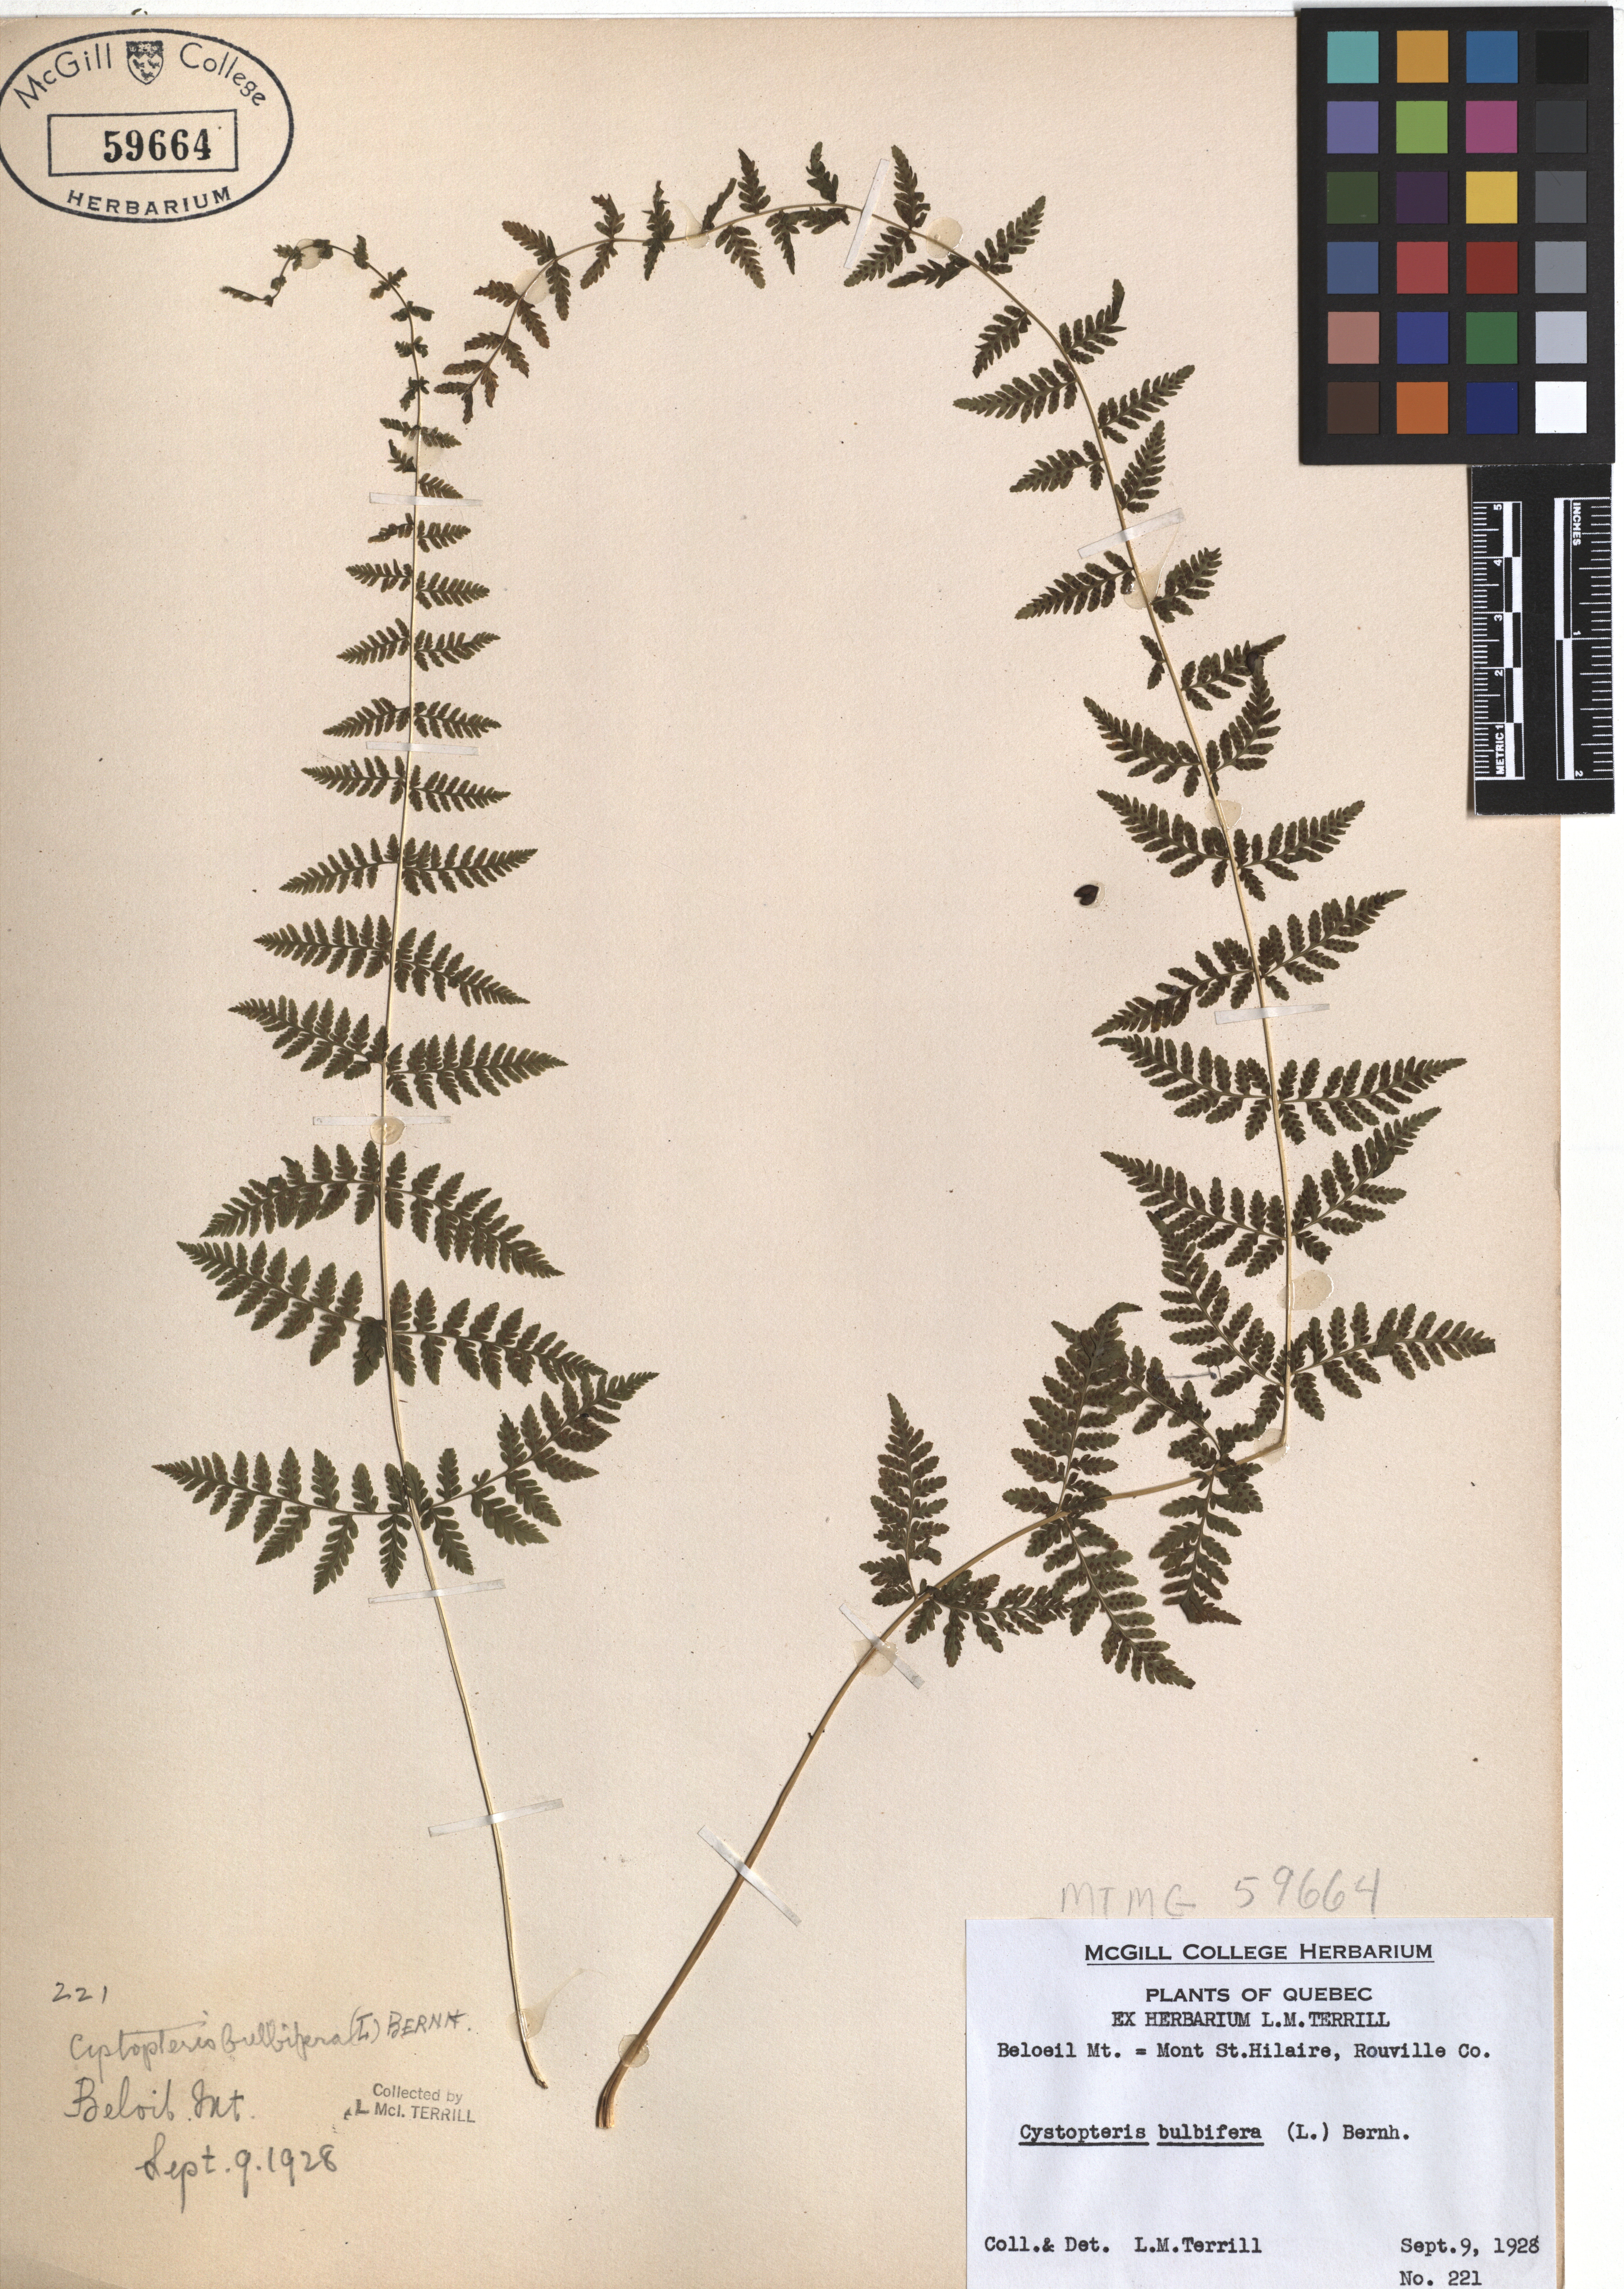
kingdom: Plantae
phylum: Tracheophyta
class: Polypodiopsida
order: Polypodiales
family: Cystopteridaceae
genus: Cystopteris
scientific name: Cystopteris bulbifera
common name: Bulblet bladder fern
